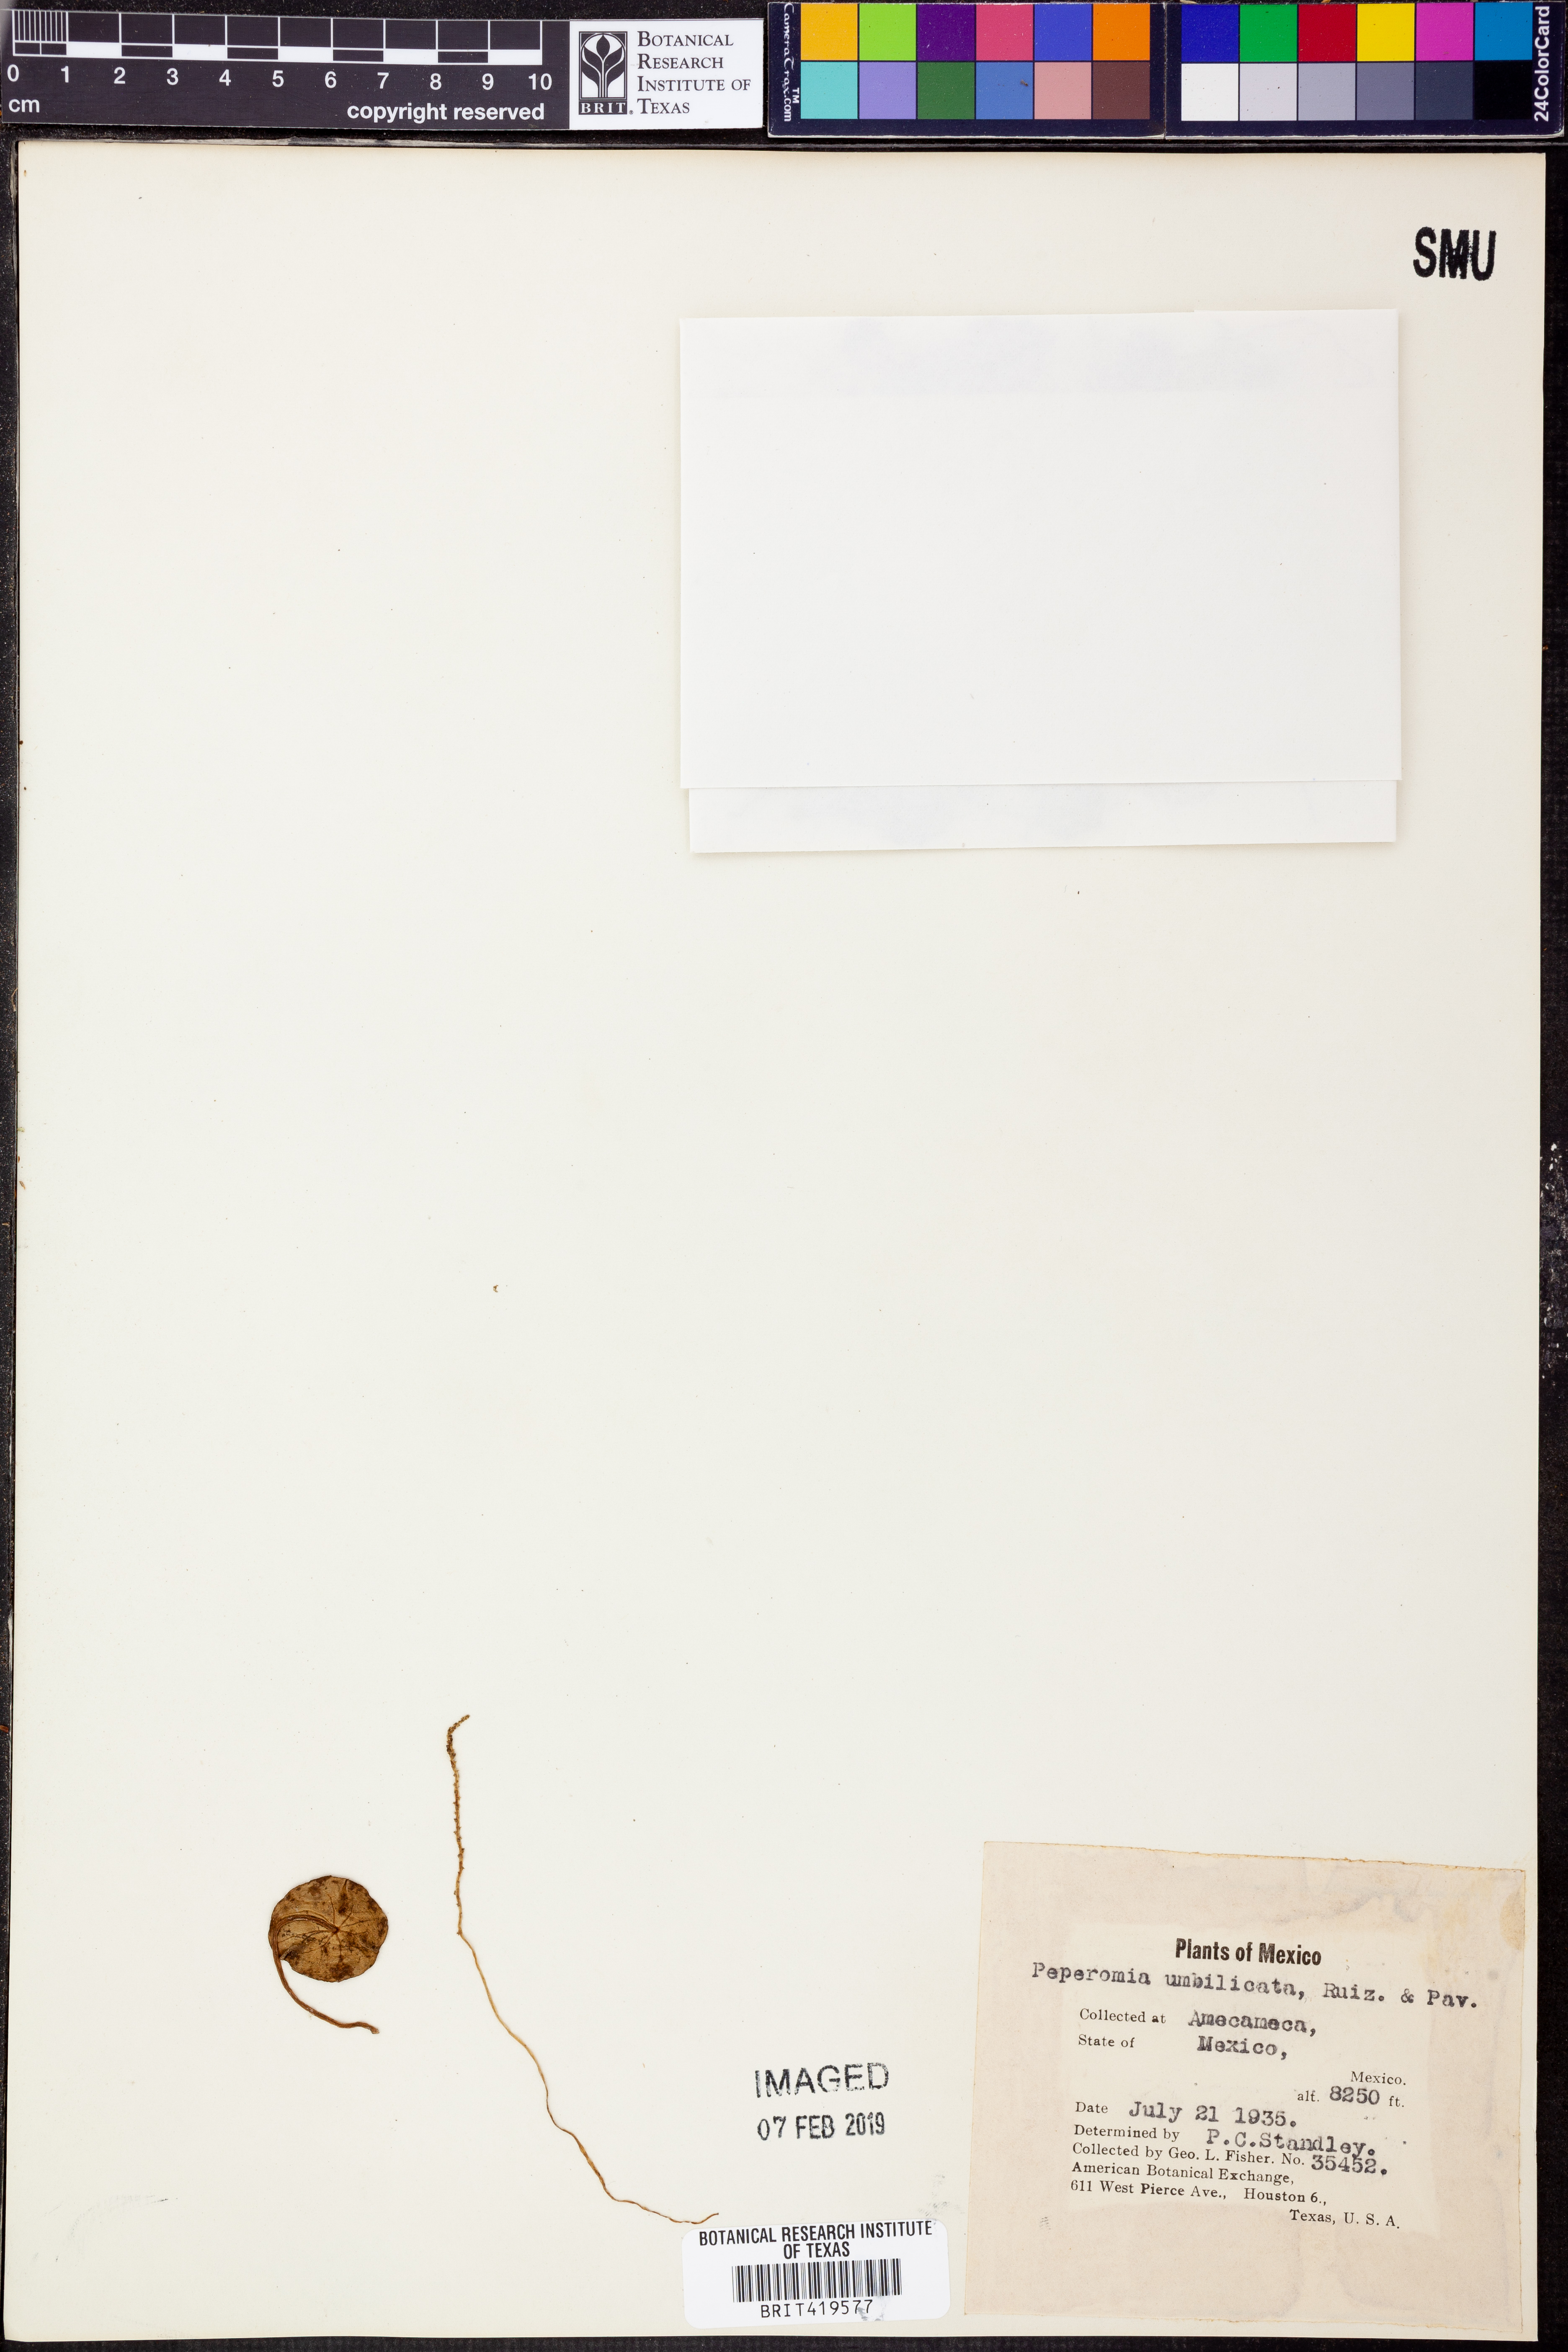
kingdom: Plantae
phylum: Tracheophyta
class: Magnoliopsida
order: Piperales
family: Piperaceae
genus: Peperomia
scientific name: Peperomia umbilicata
